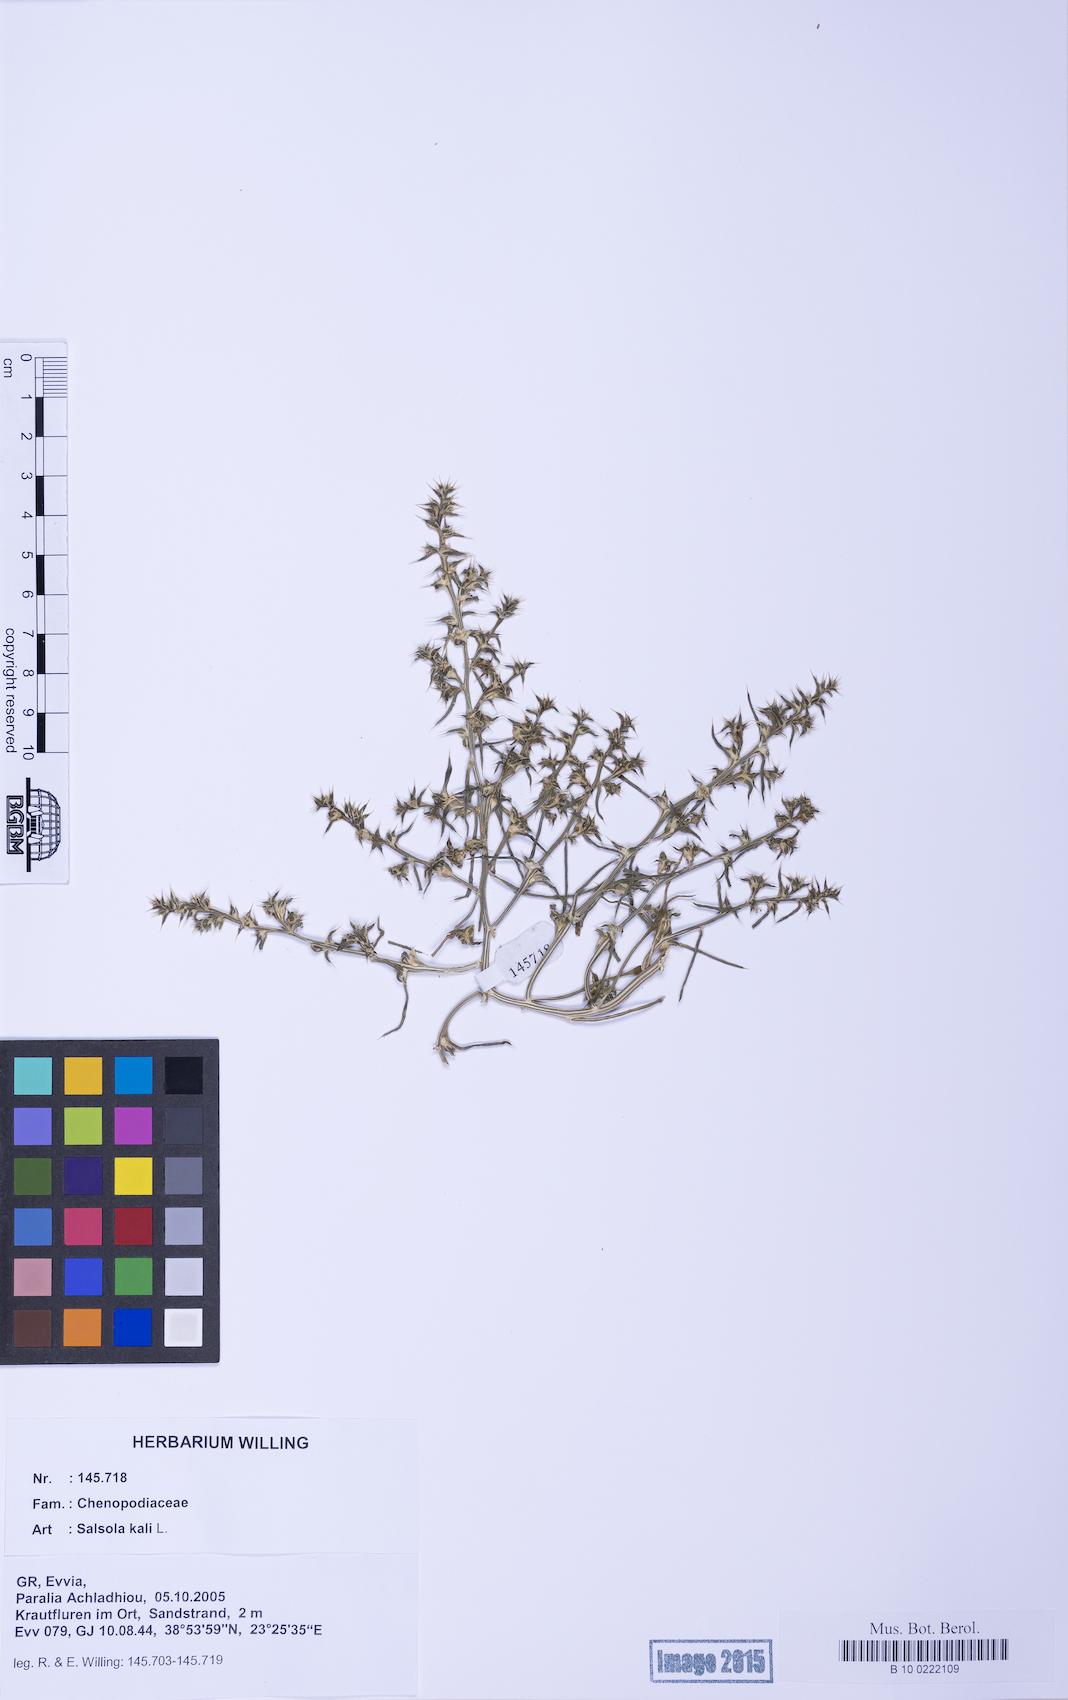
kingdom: Plantae
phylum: Tracheophyta
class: Magnoliopsida
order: Caryophyllales
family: Amaranthaceae
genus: Salsola
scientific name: Salsola kali
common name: Saltwort
